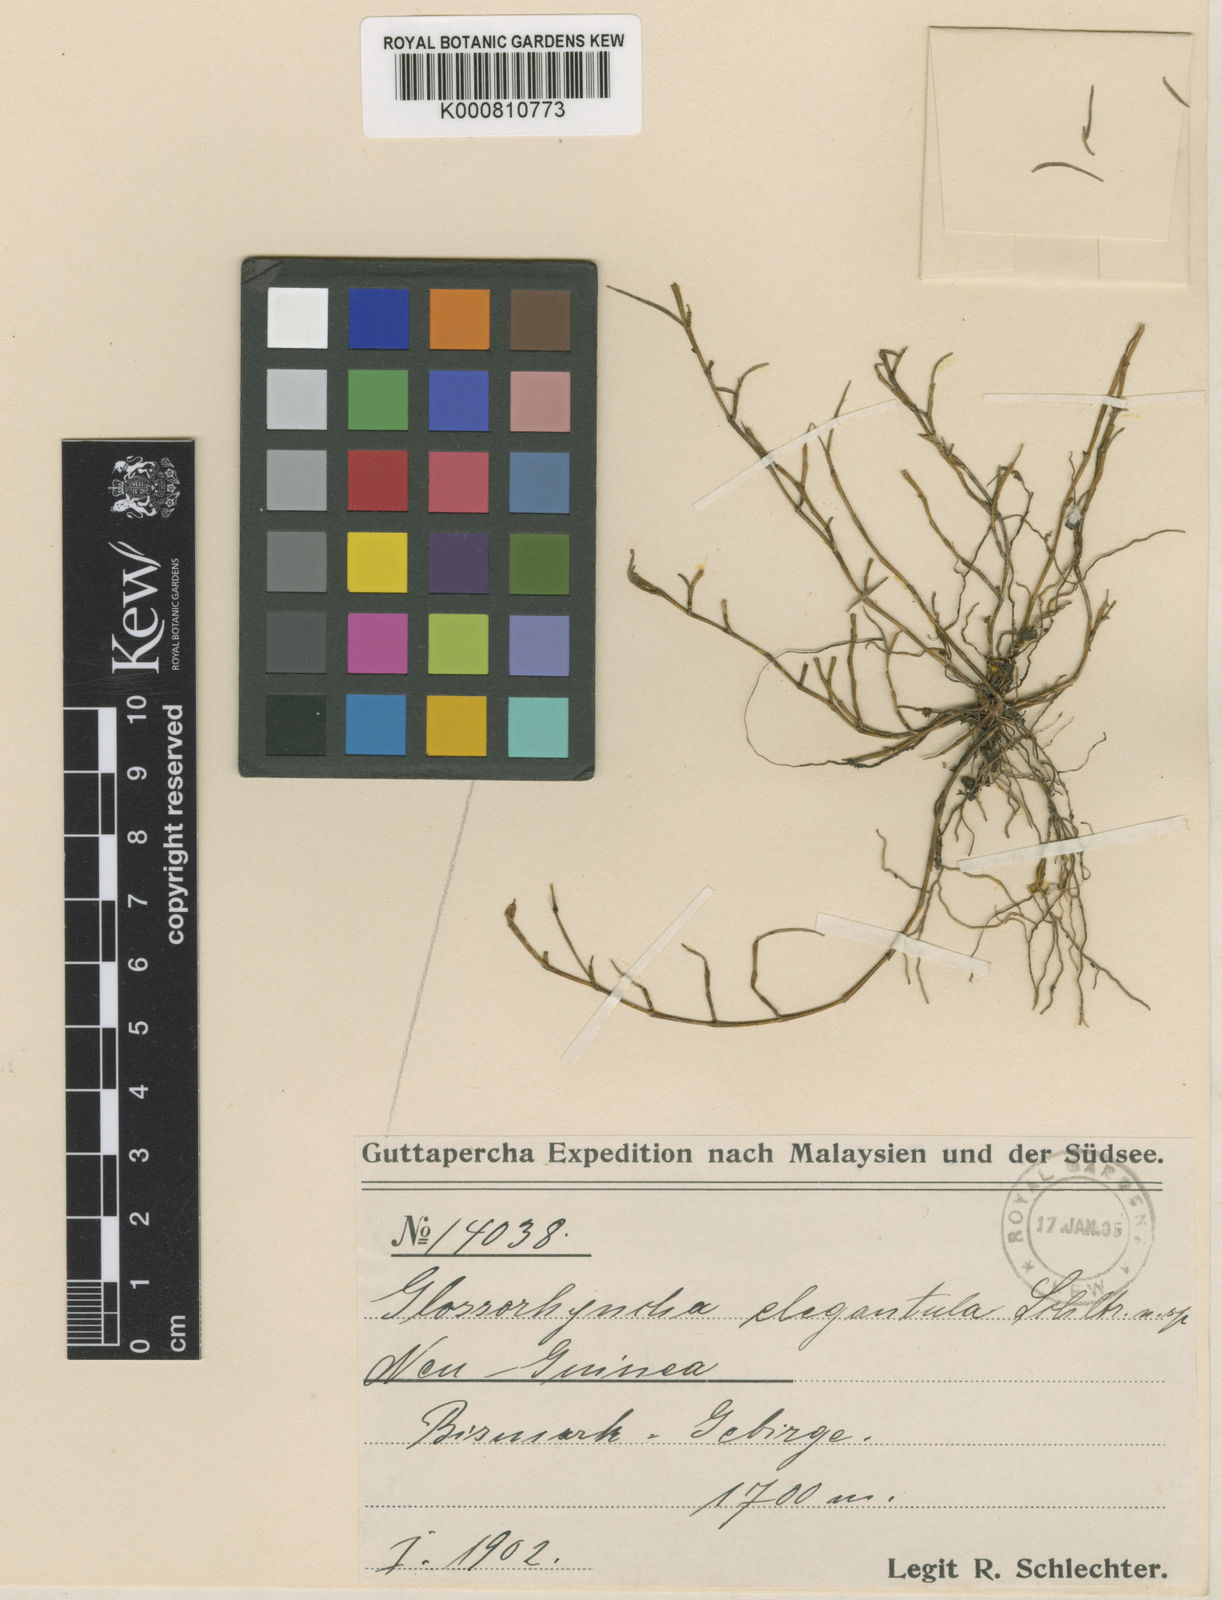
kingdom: Plantae
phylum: Tracheophyta
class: Liliopsida
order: Asparagales
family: Orchidaceae
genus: Glomera
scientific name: Glomera
